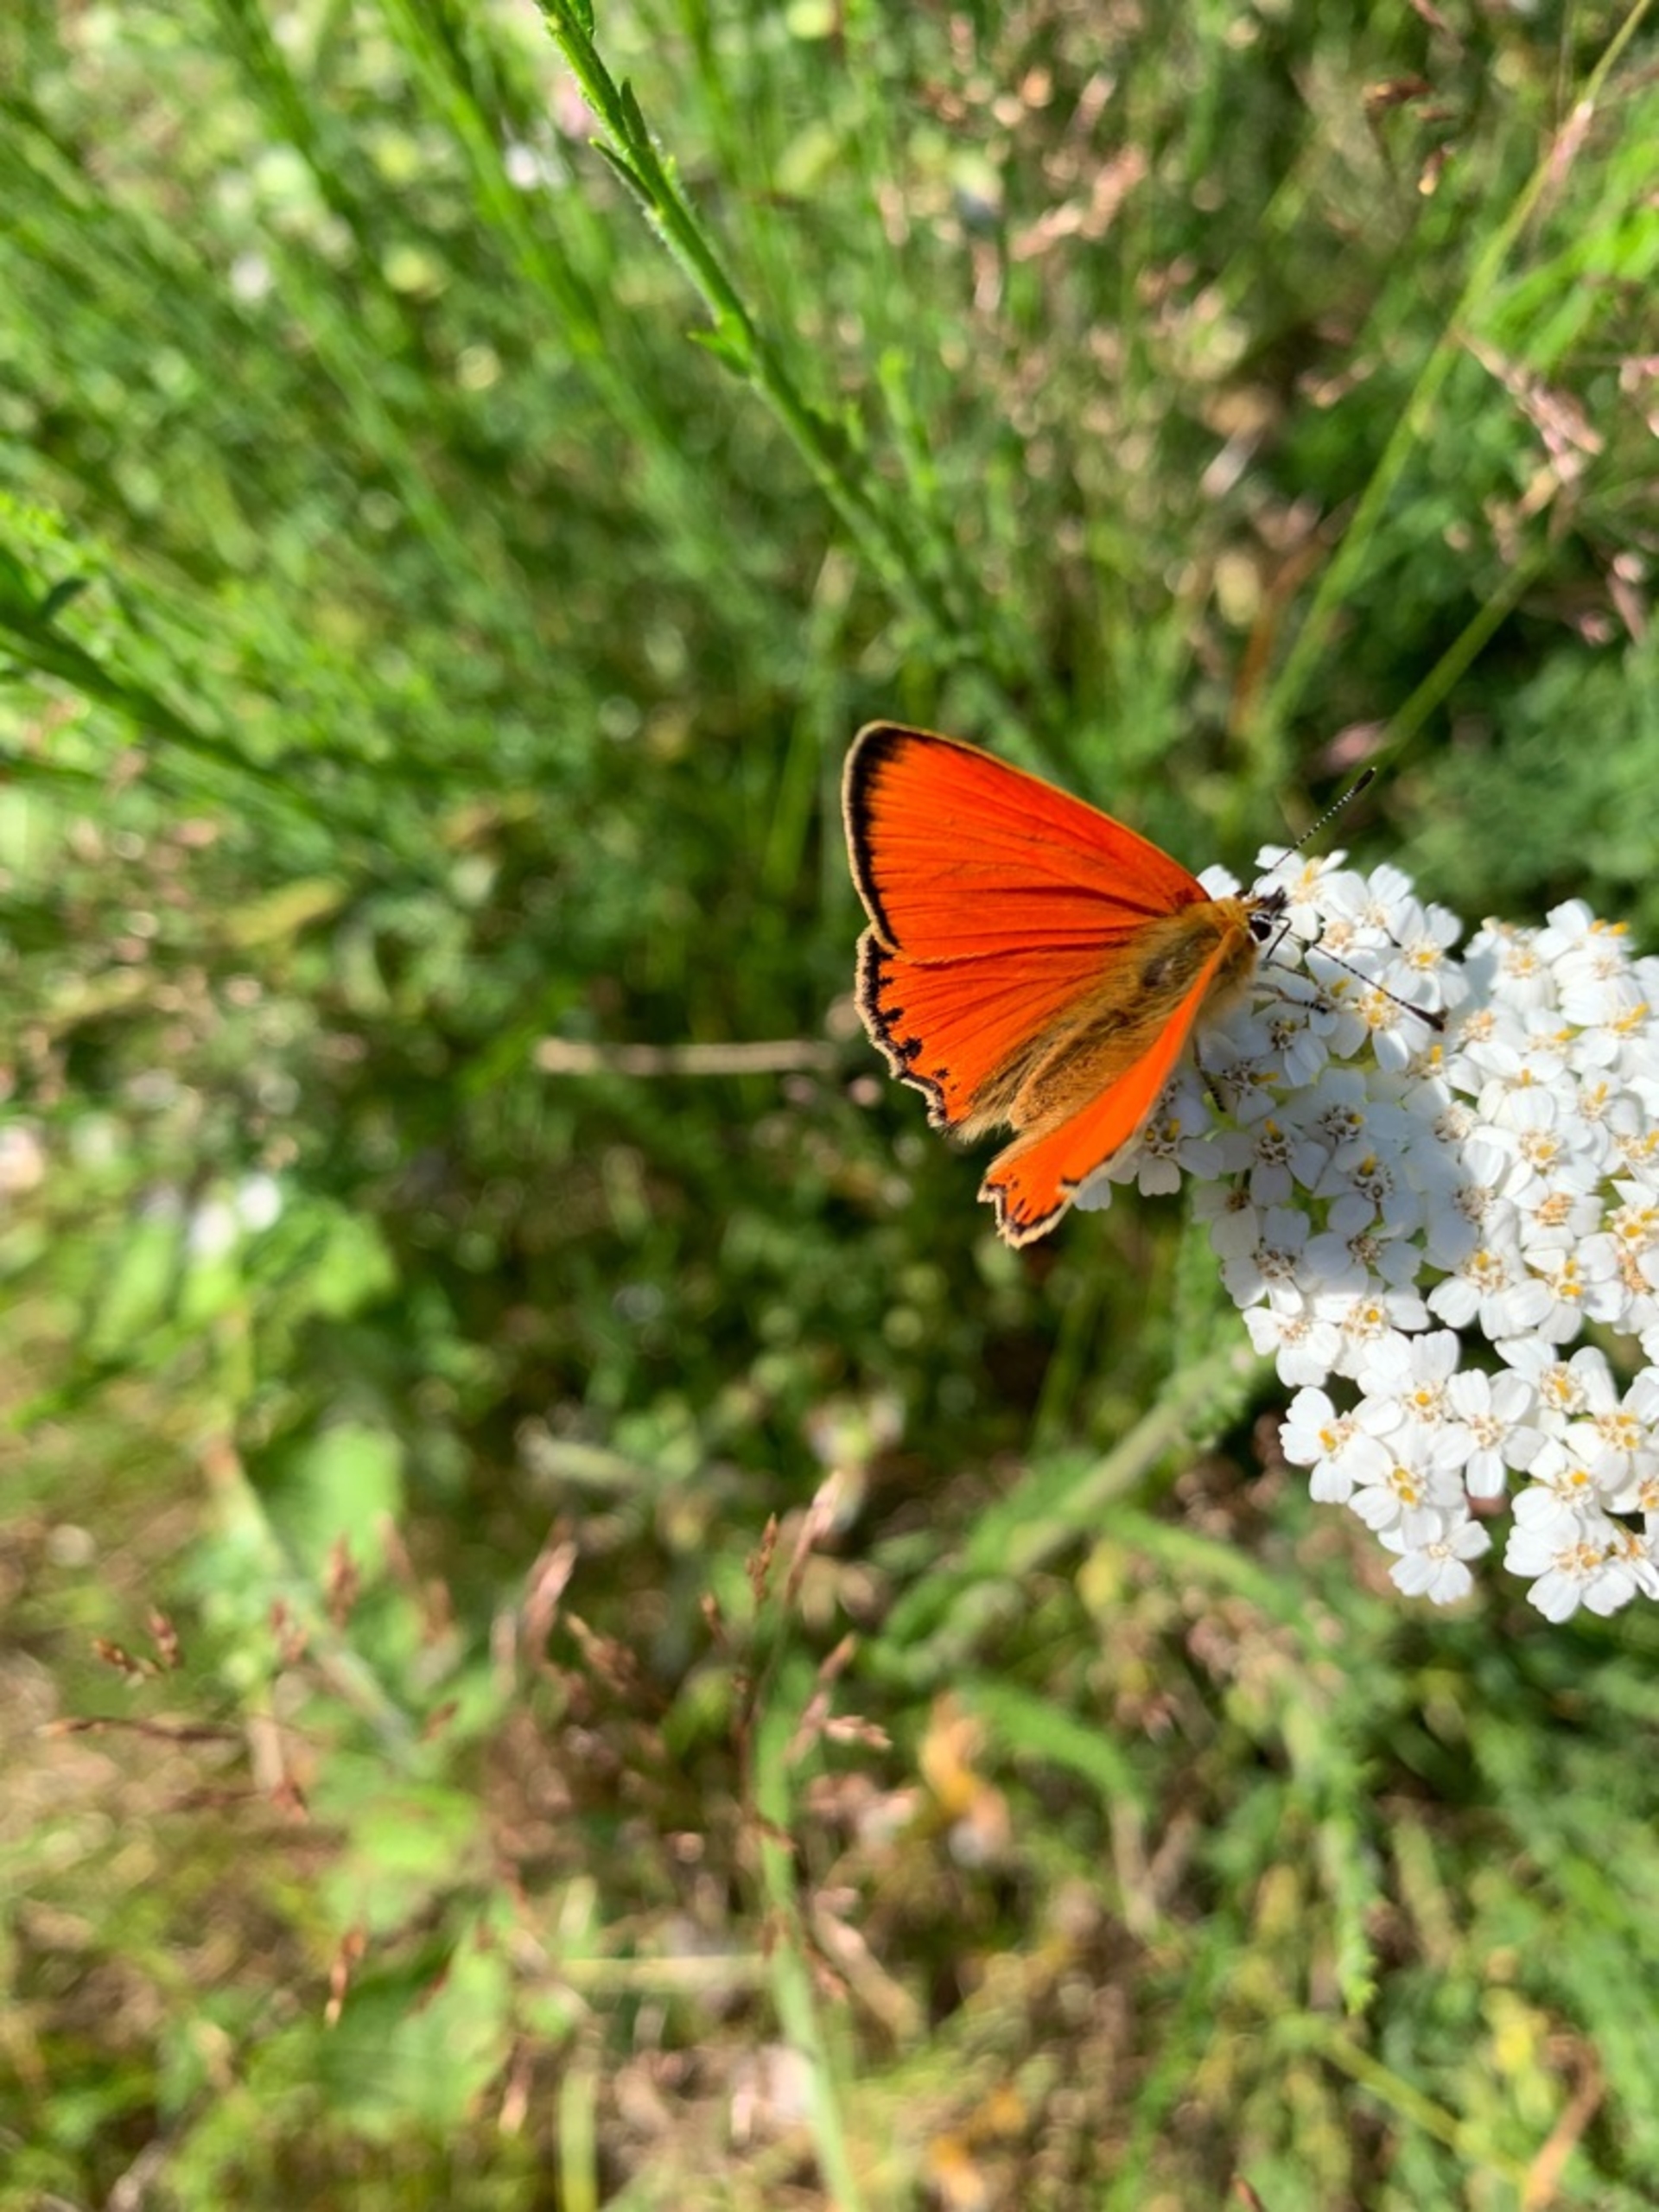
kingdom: Animalia
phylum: Arthropoda
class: Insecta
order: Lepidoptera
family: Lycaenidae
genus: Lycaena
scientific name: Lycaena virgaureae
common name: Dukatsommerfugl
